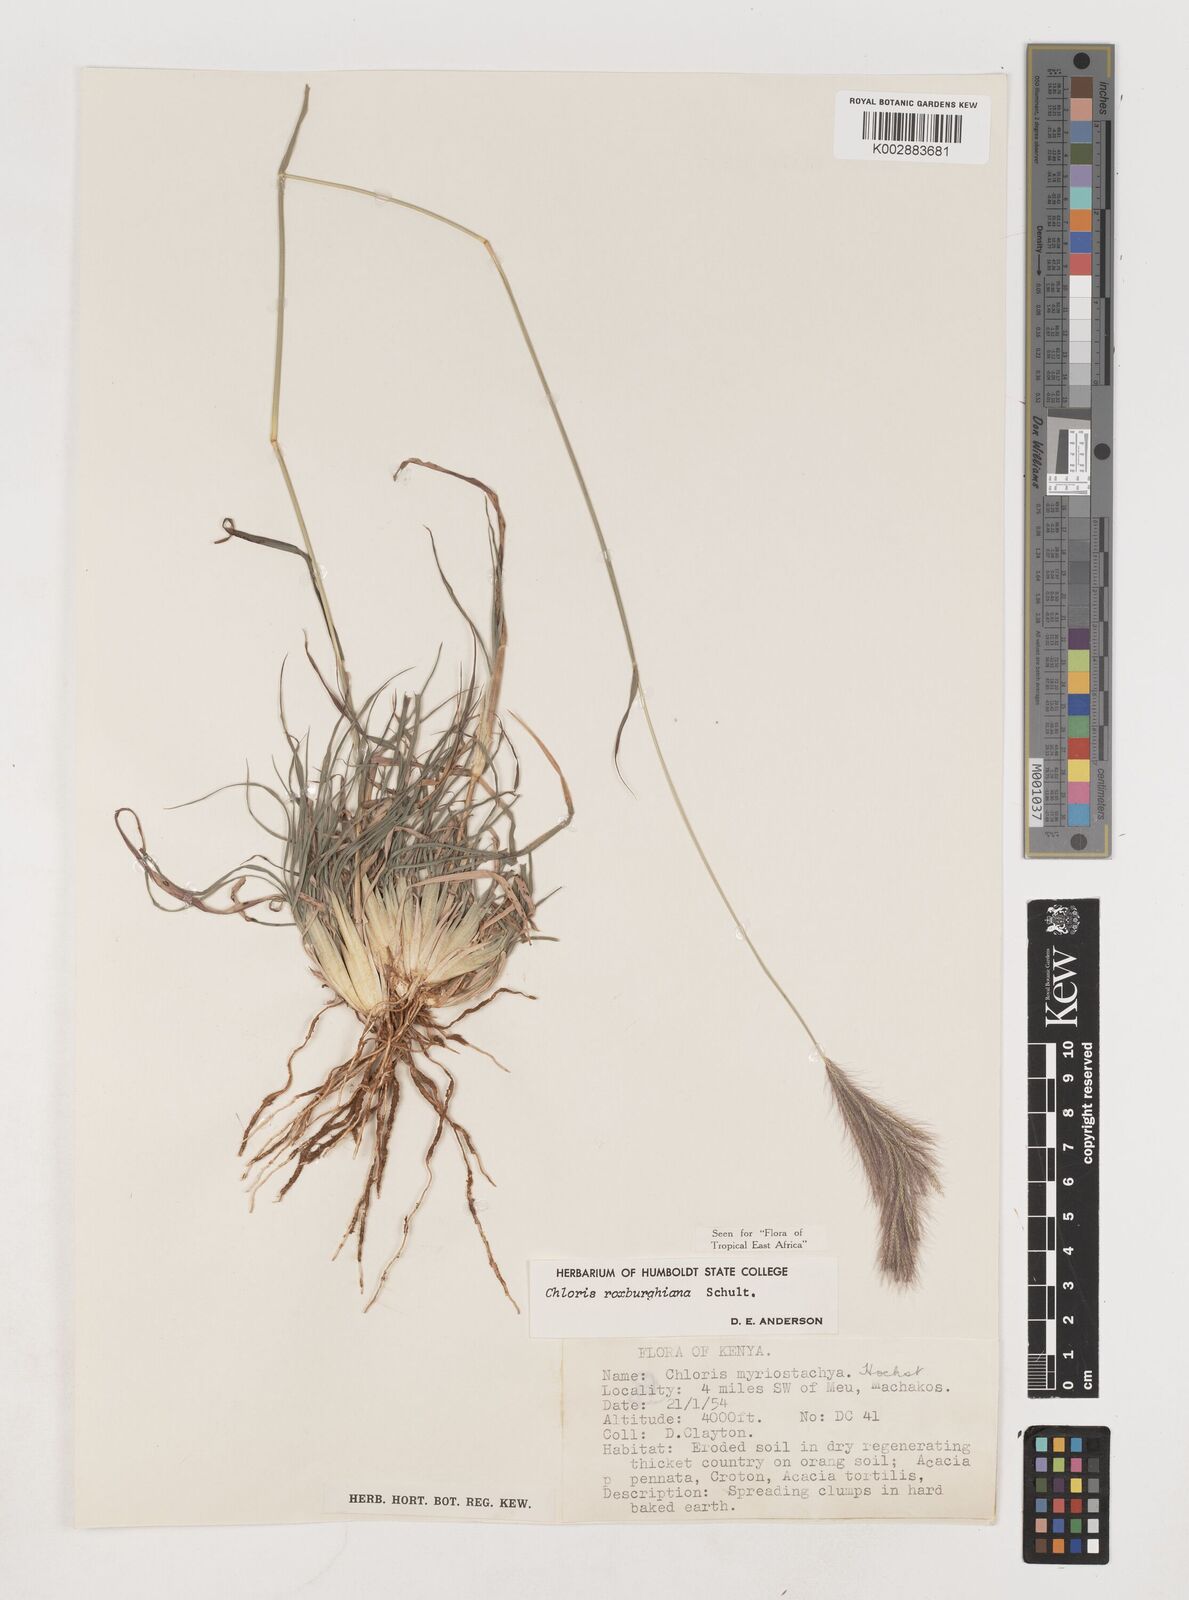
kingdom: Plantae
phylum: Tracheophyta
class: Liliopsida
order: Poales
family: Poaceae
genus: Tetrapogon
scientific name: Tetrapogon roxburghiana
